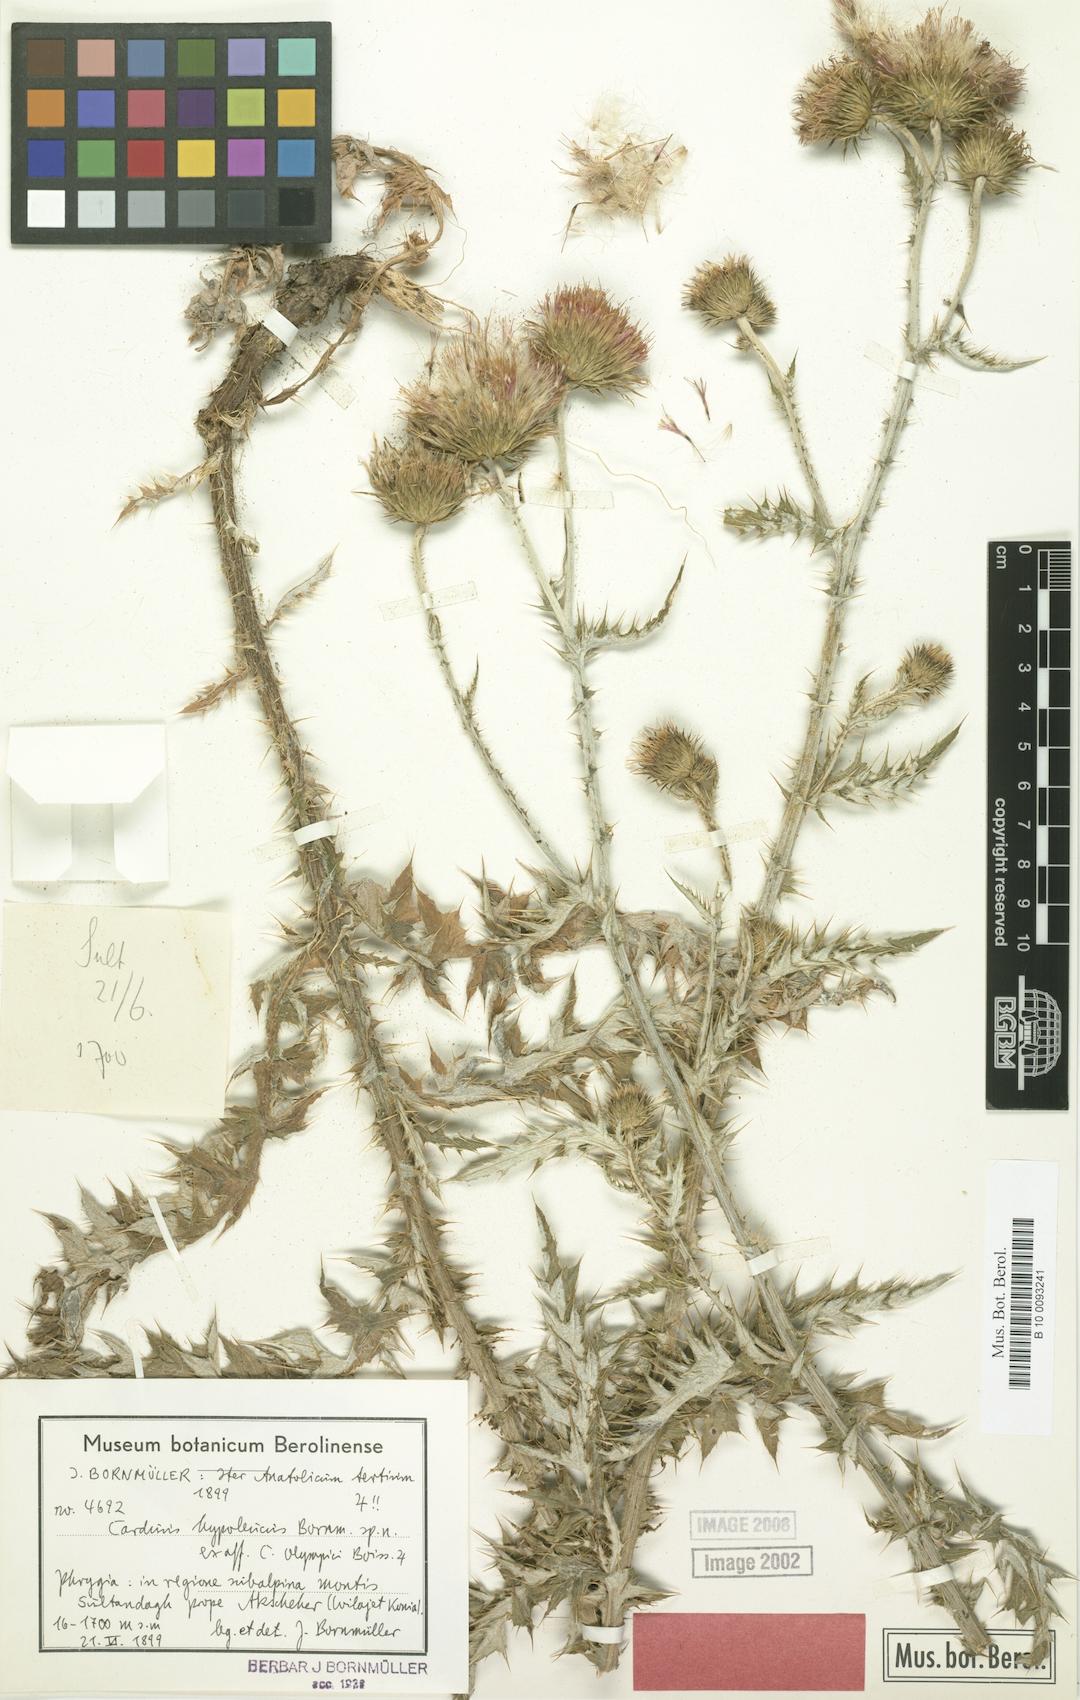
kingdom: Plantae
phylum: Tracheophyta
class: Magnoliopsida
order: Asterales
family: Asteraceae
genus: Carduus
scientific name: Carduus olympicus
